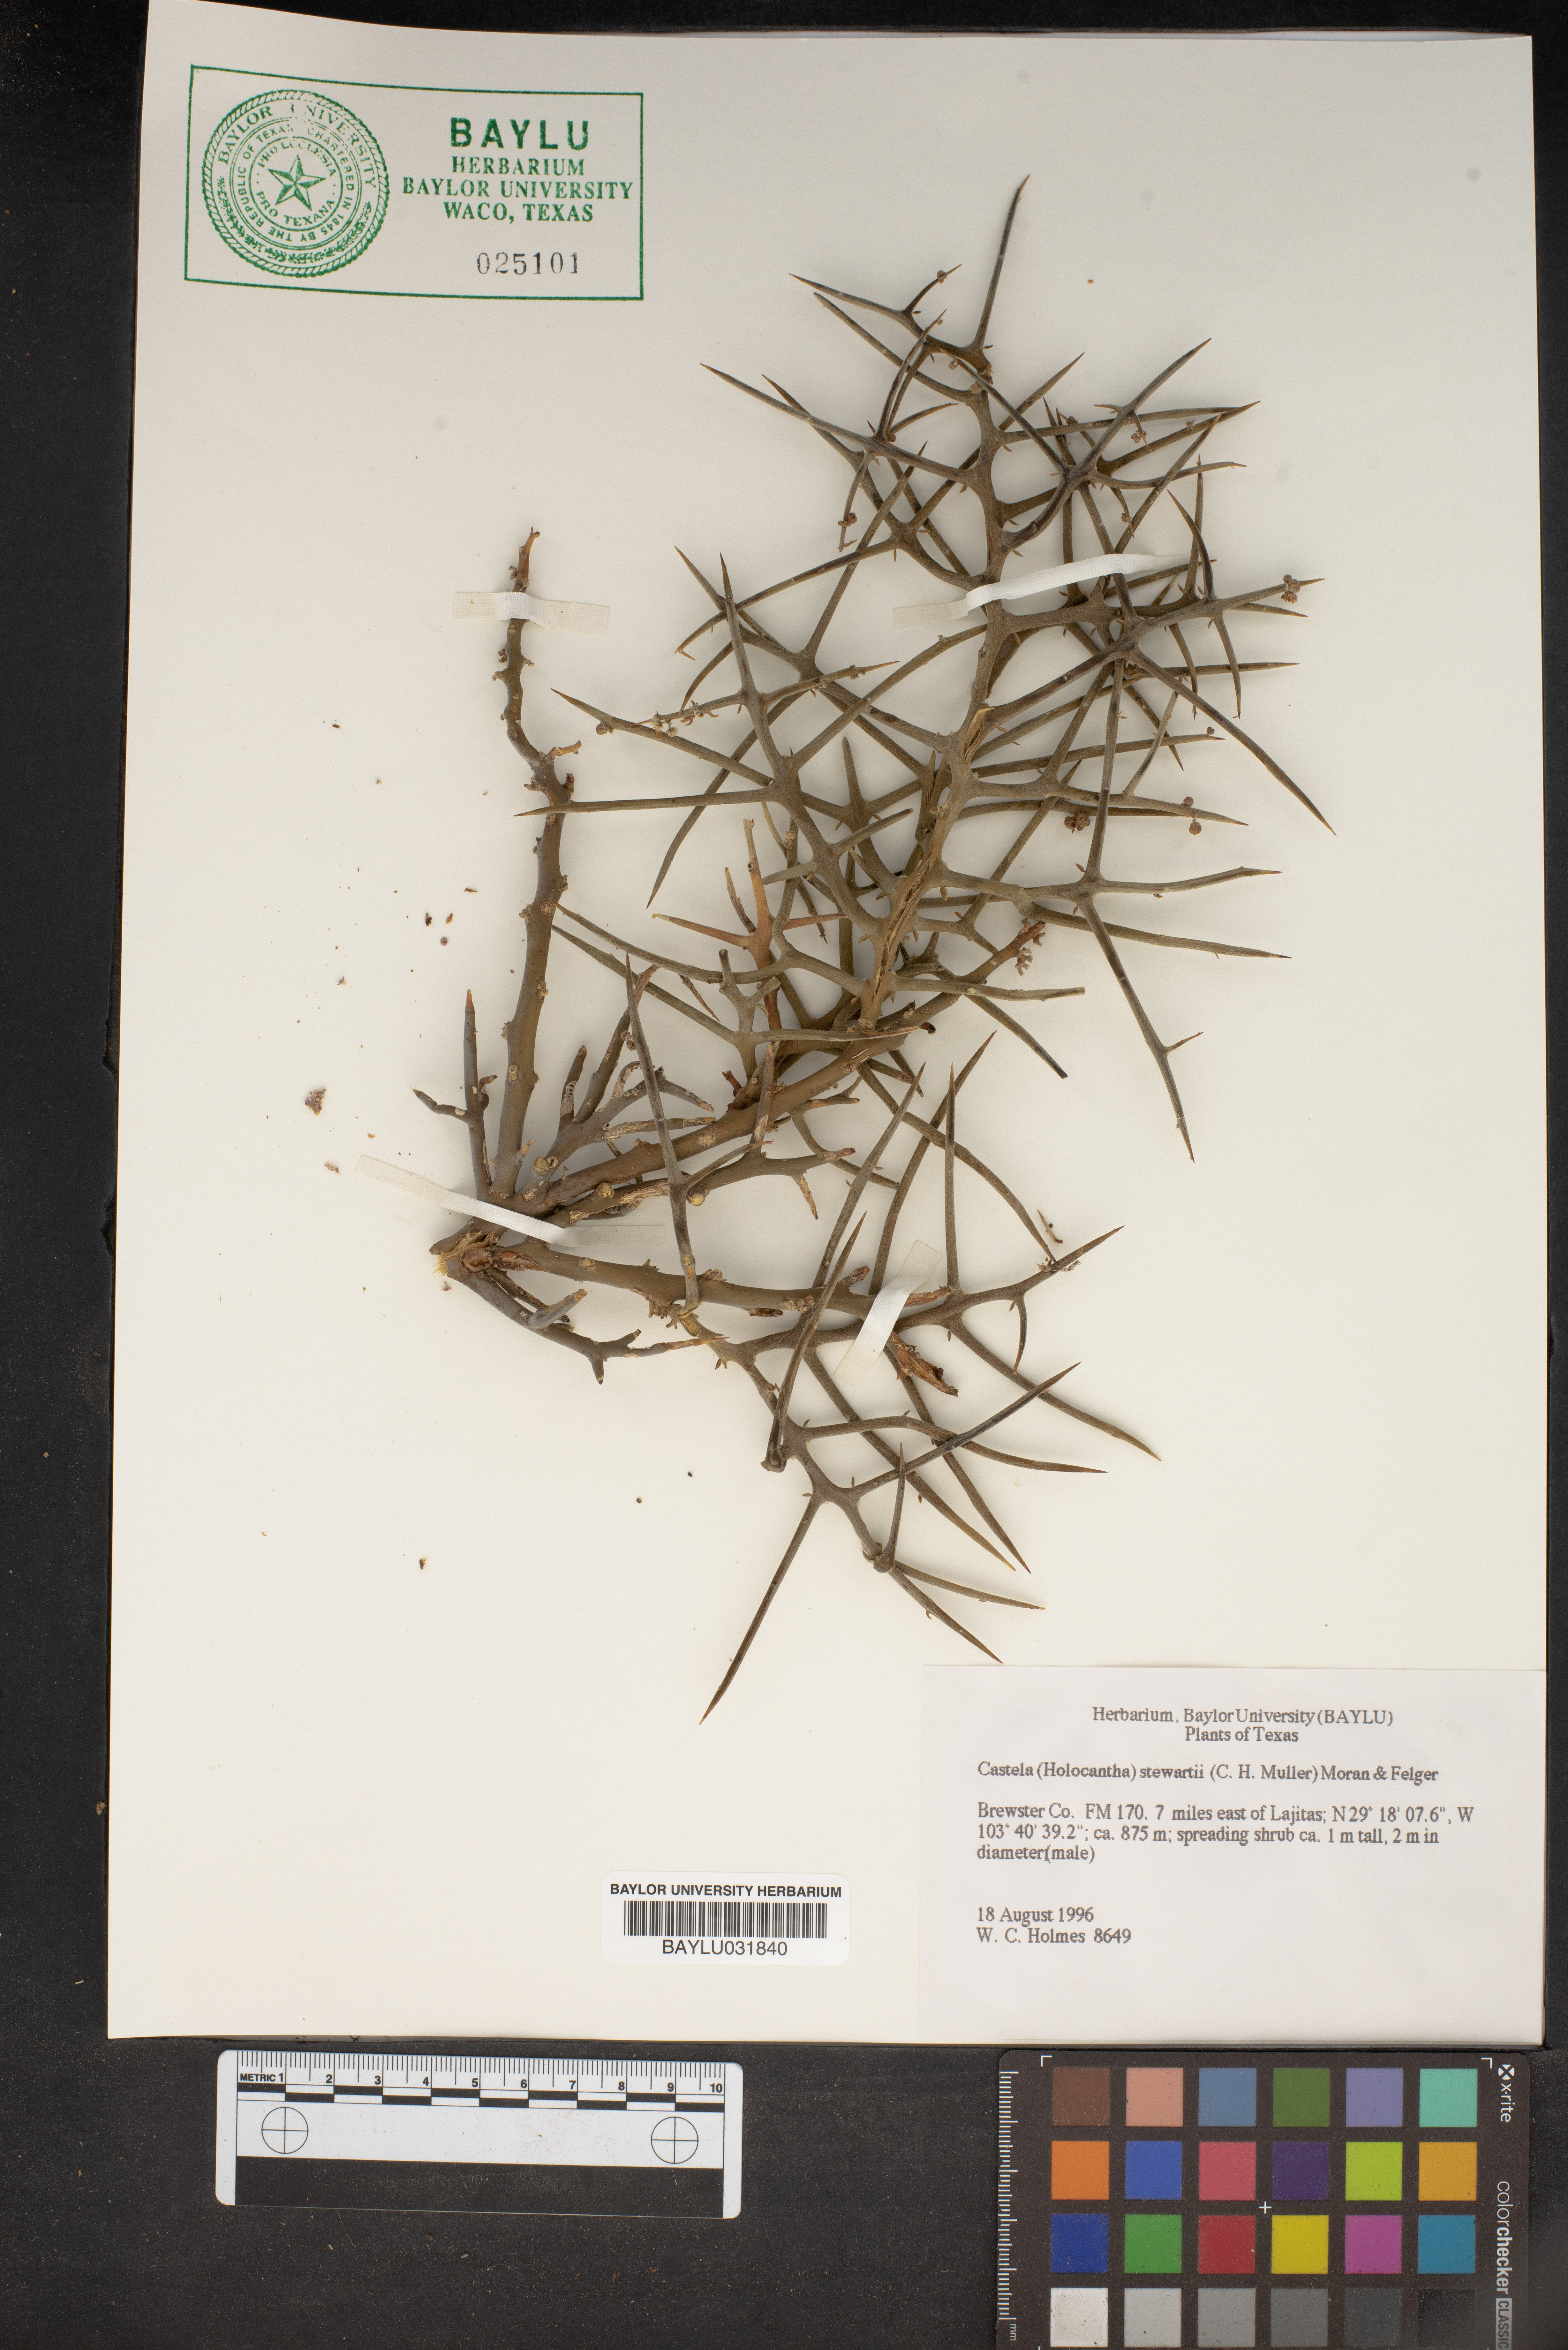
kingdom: Plantae
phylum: Tracheophyta
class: Magnoliopsida
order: Sapindales
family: Simaroubaceae
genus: Holacantha
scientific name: Holacantha stewartii
